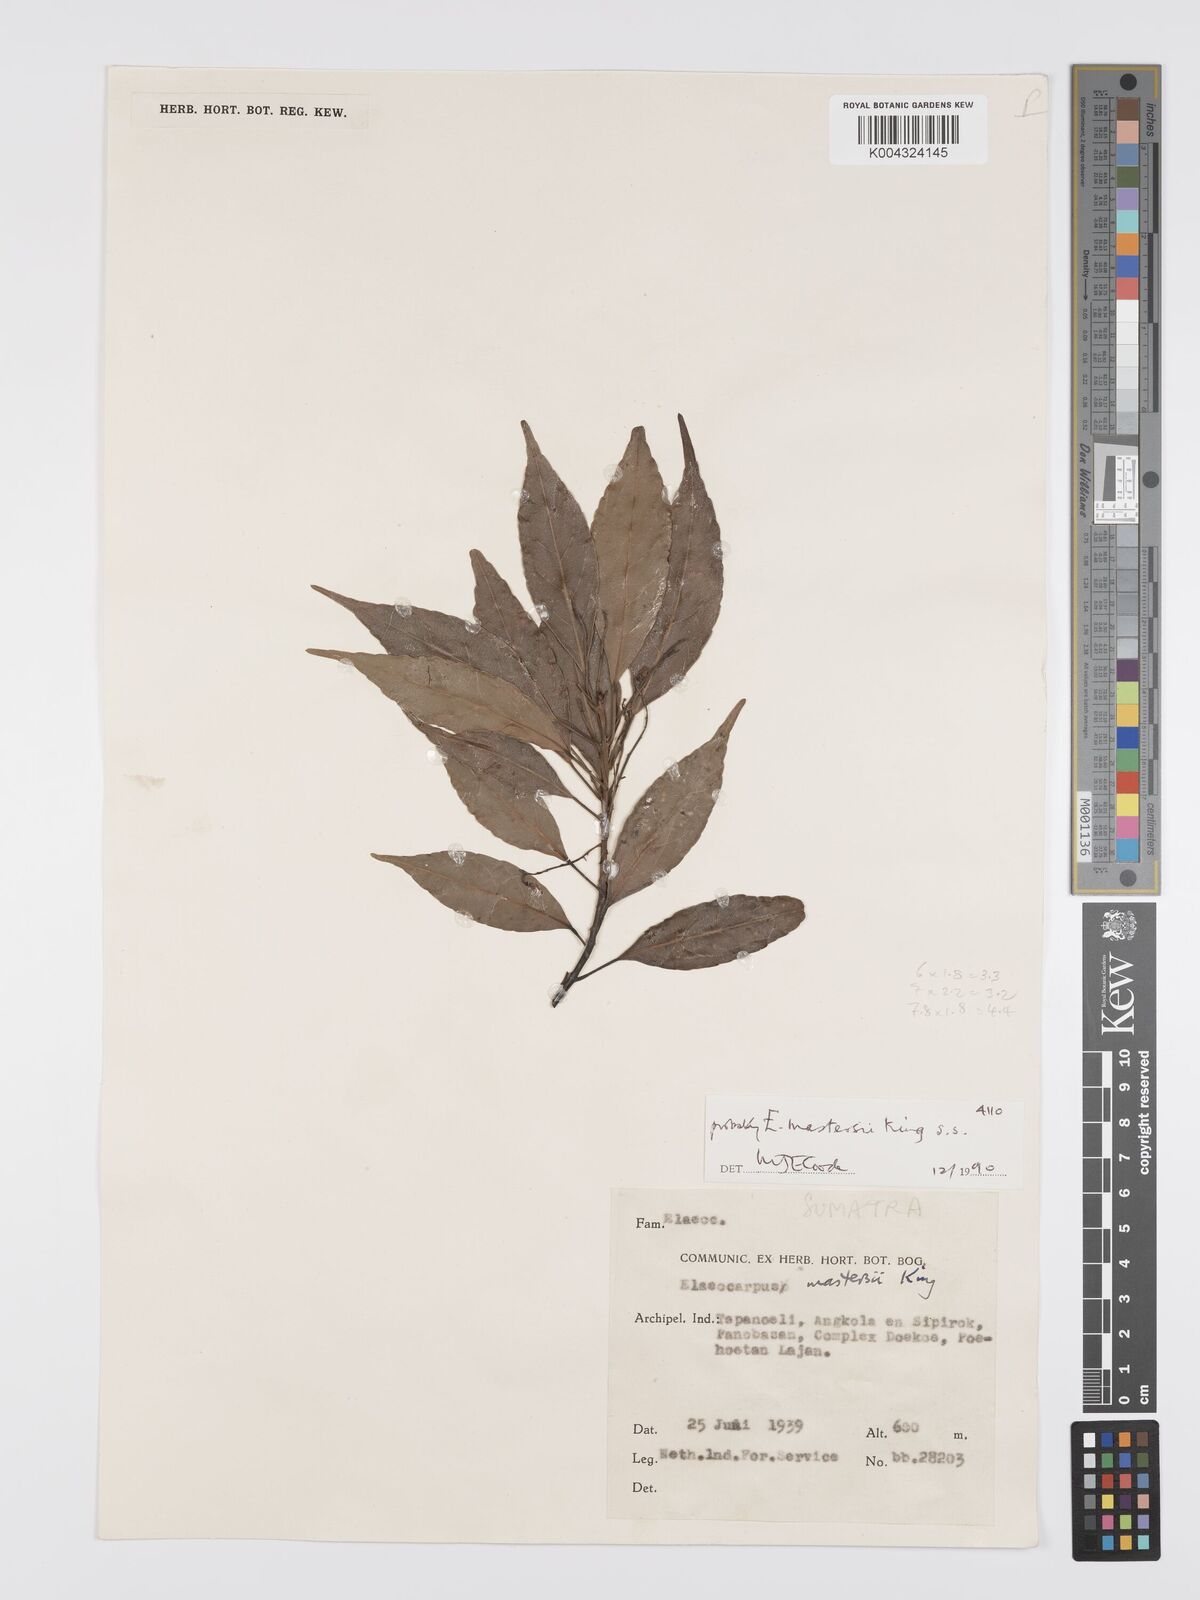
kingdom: Plantae
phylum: Tracheophyta
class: Magnoliopsida
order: Oxalidales
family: Elaeocarpaceae
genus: Elaeocarpus
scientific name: Elaeocarpus mastersii
